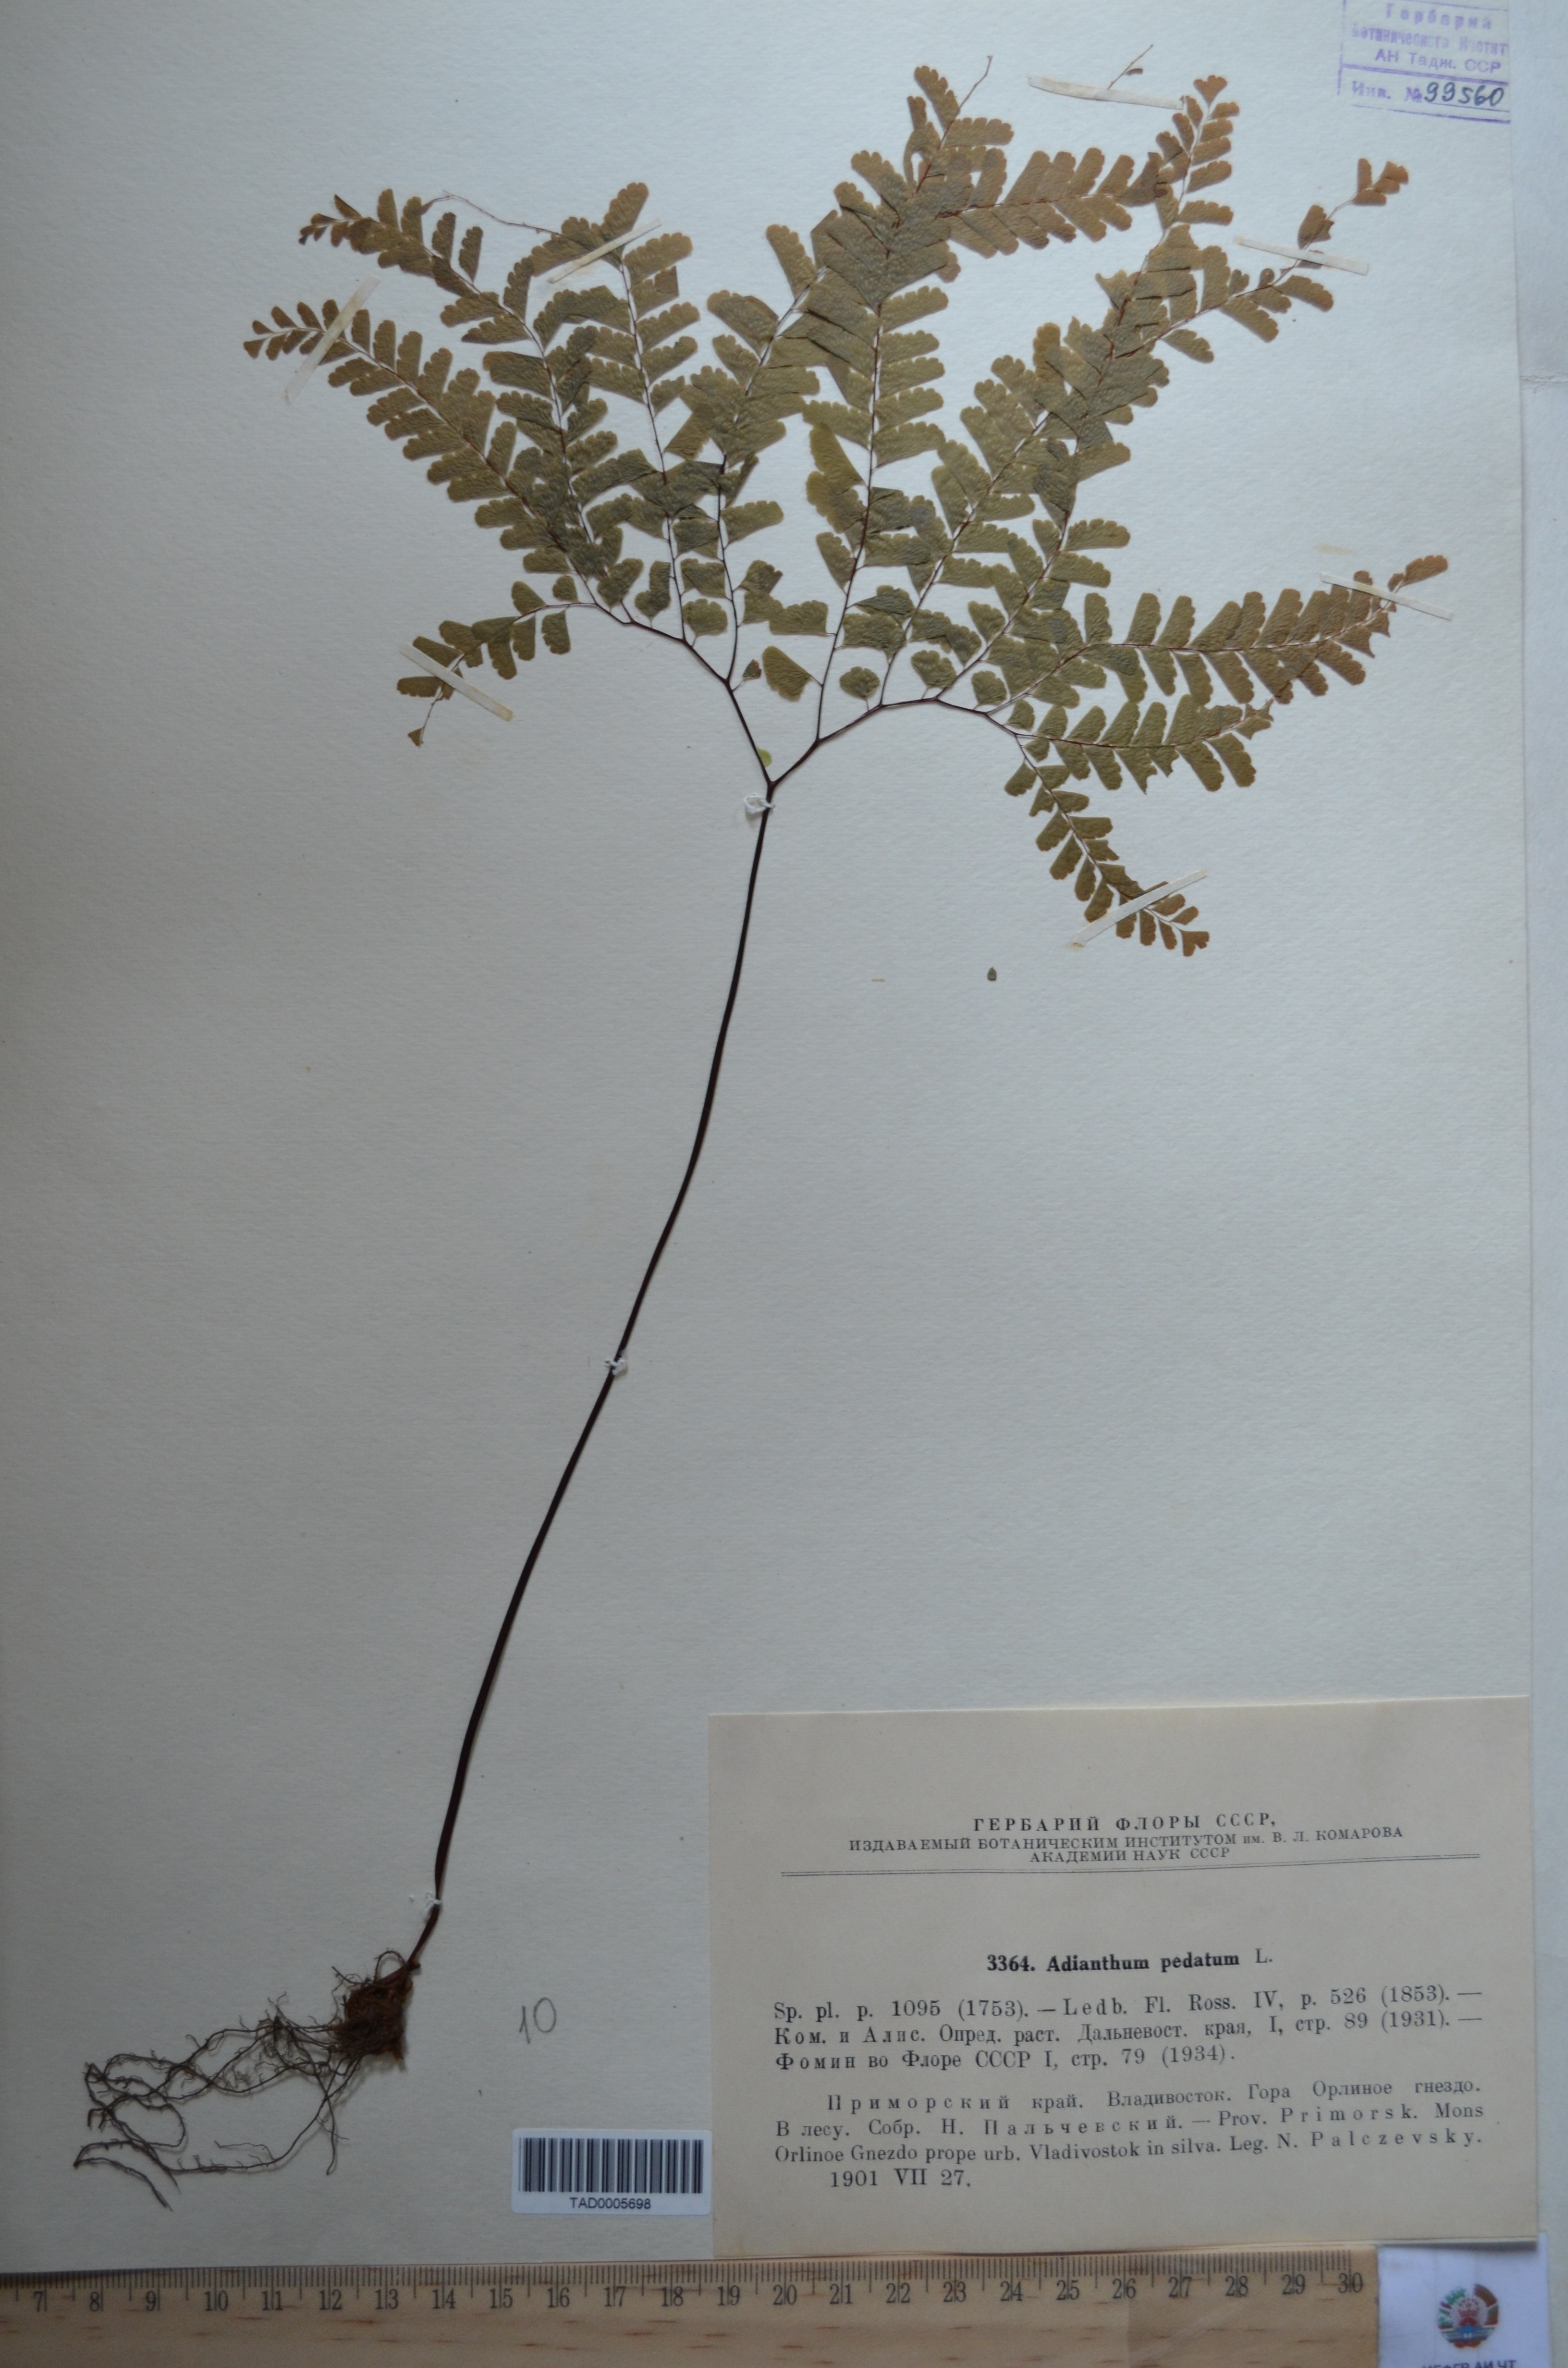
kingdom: Plantae
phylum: Tracheophyta
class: Polypodiopsida
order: Polypodiales
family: Pteridaceae
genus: Adiantum
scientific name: Adiantum pedatum
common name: Five-finger fern
